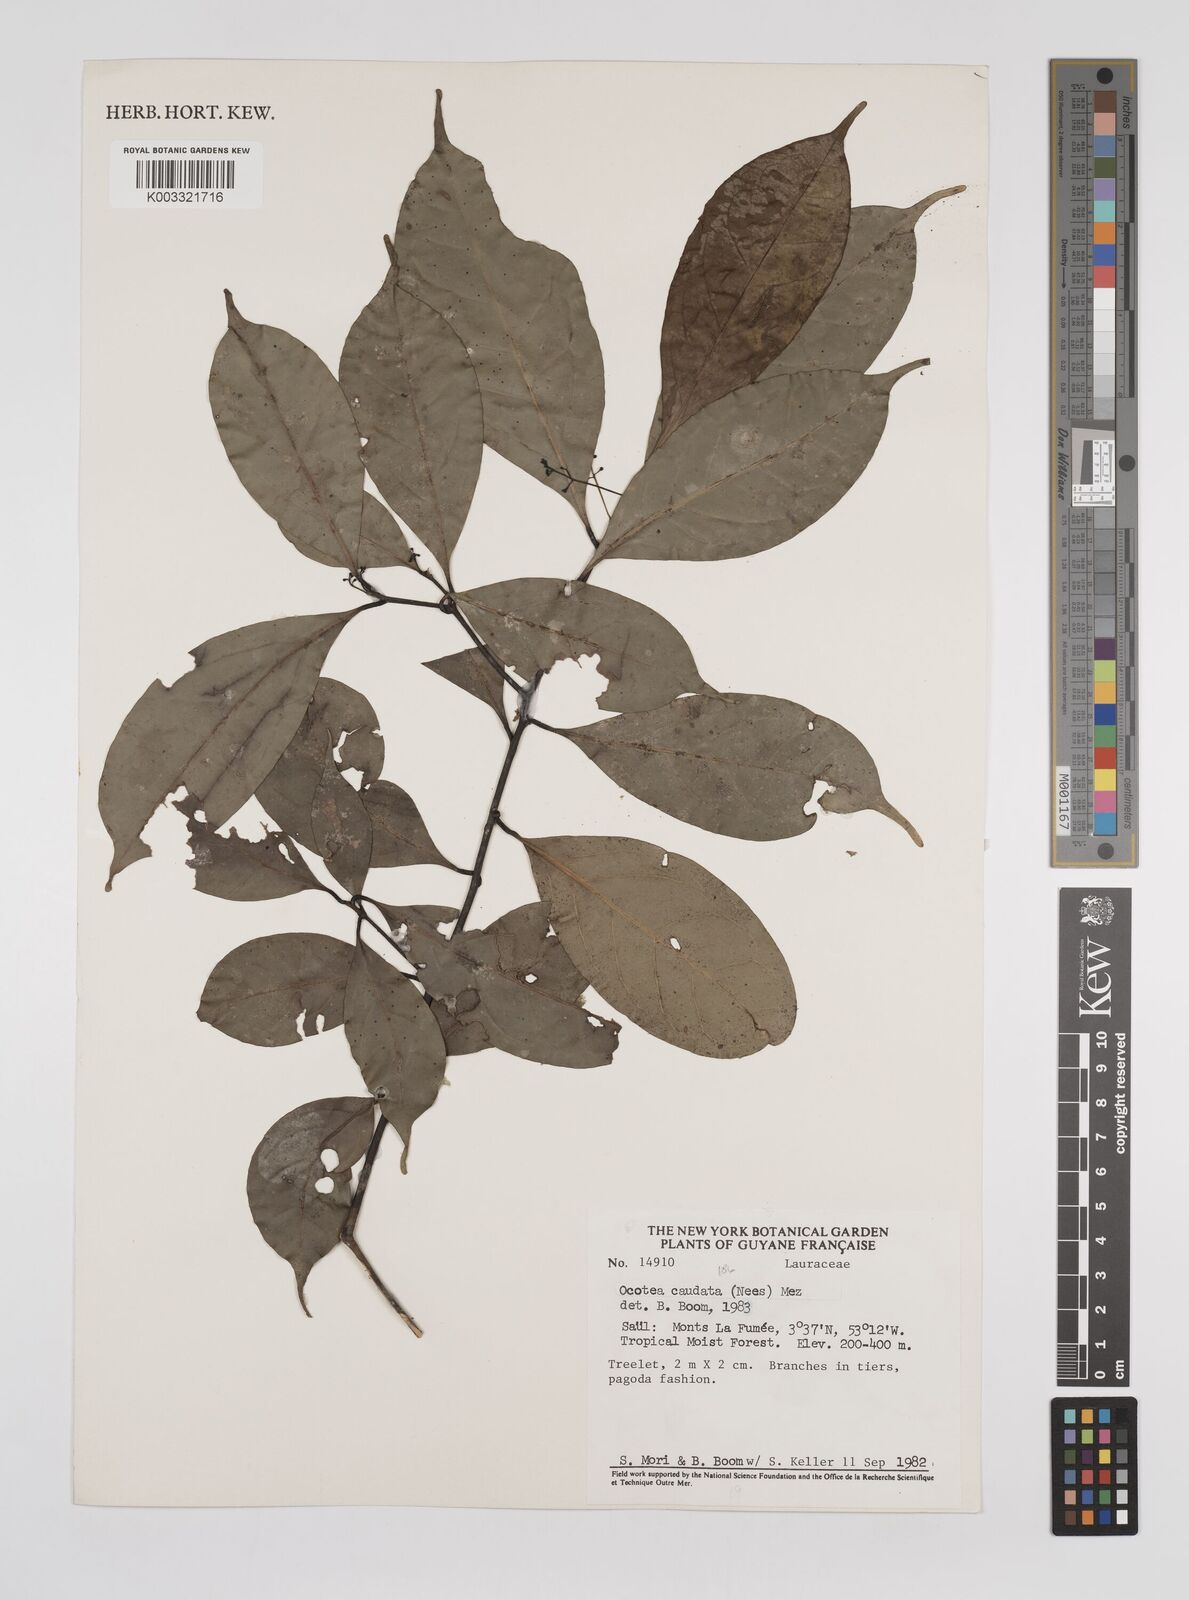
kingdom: Plantae
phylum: Tracheophyta
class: Magnoliopsida
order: Laurales
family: Lauraceae
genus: Ocotea
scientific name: Ocotea leptobotra
